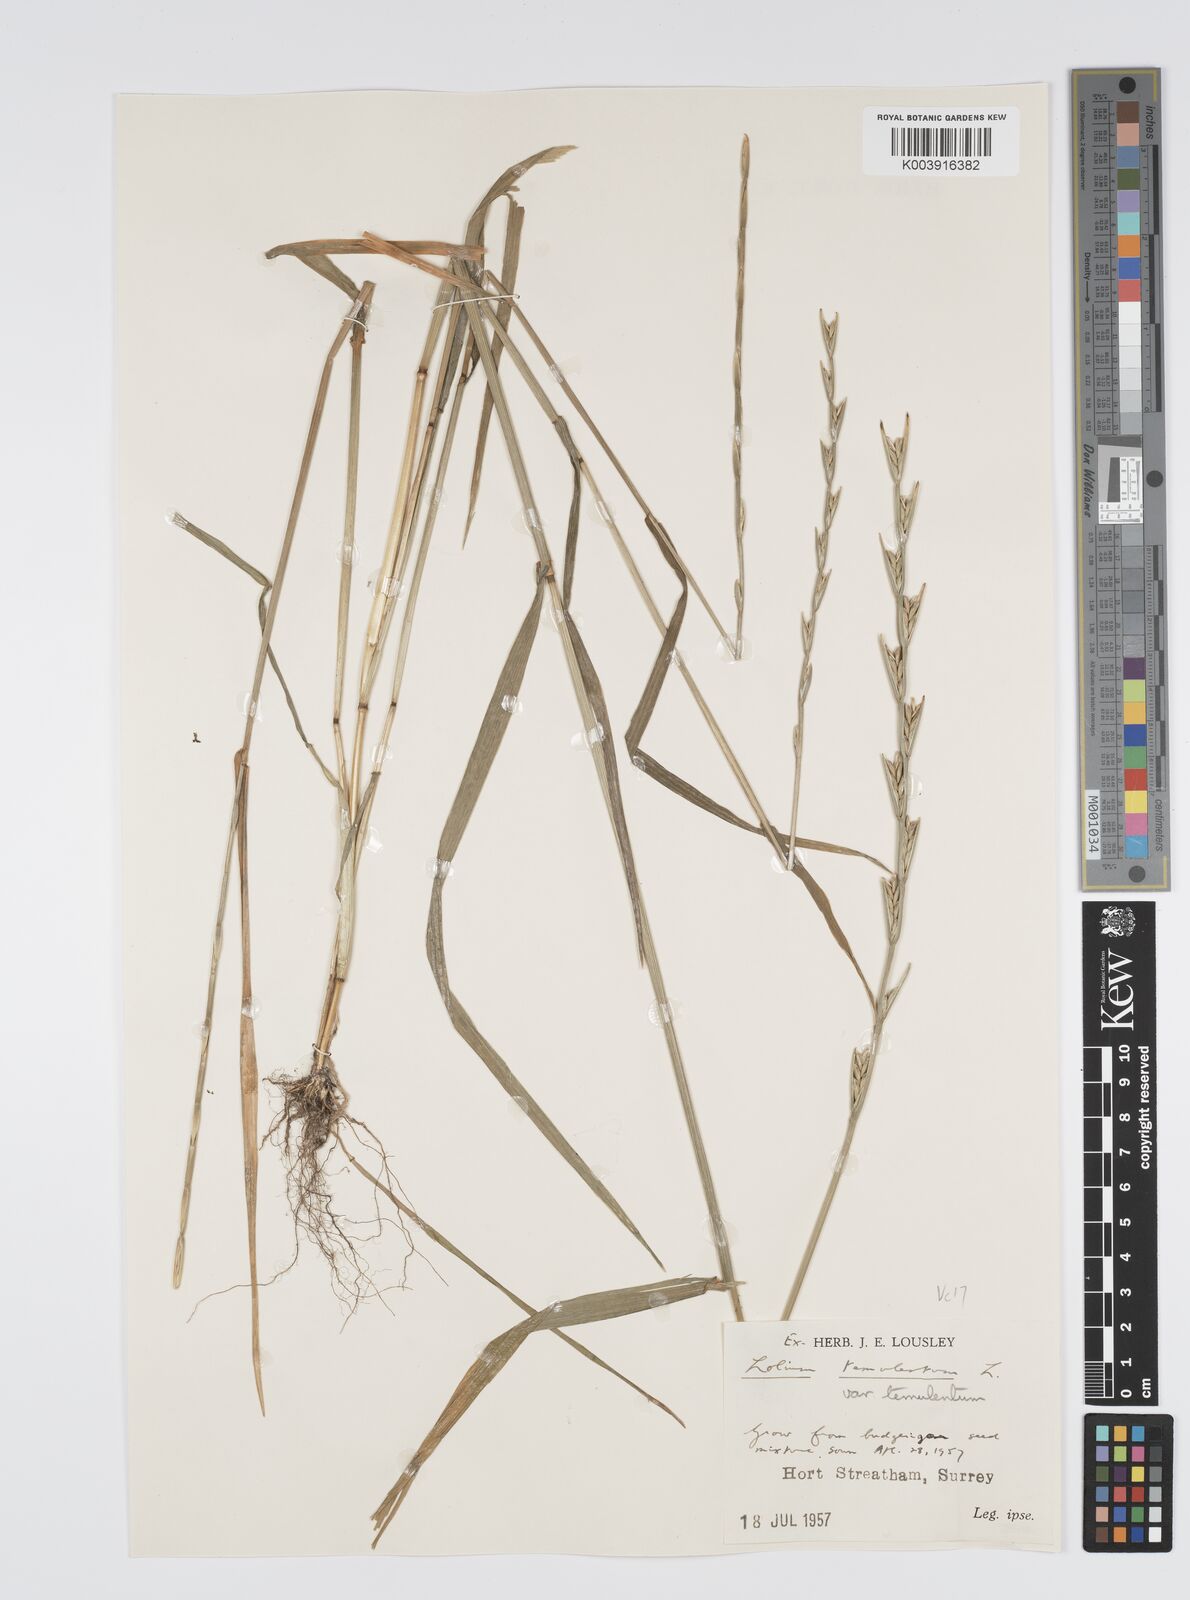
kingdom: Plantae
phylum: Tracheophyta
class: Liliopsida
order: Poales
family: Poaceae
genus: Lolium
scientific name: Lolium temulentum
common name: Darnel
